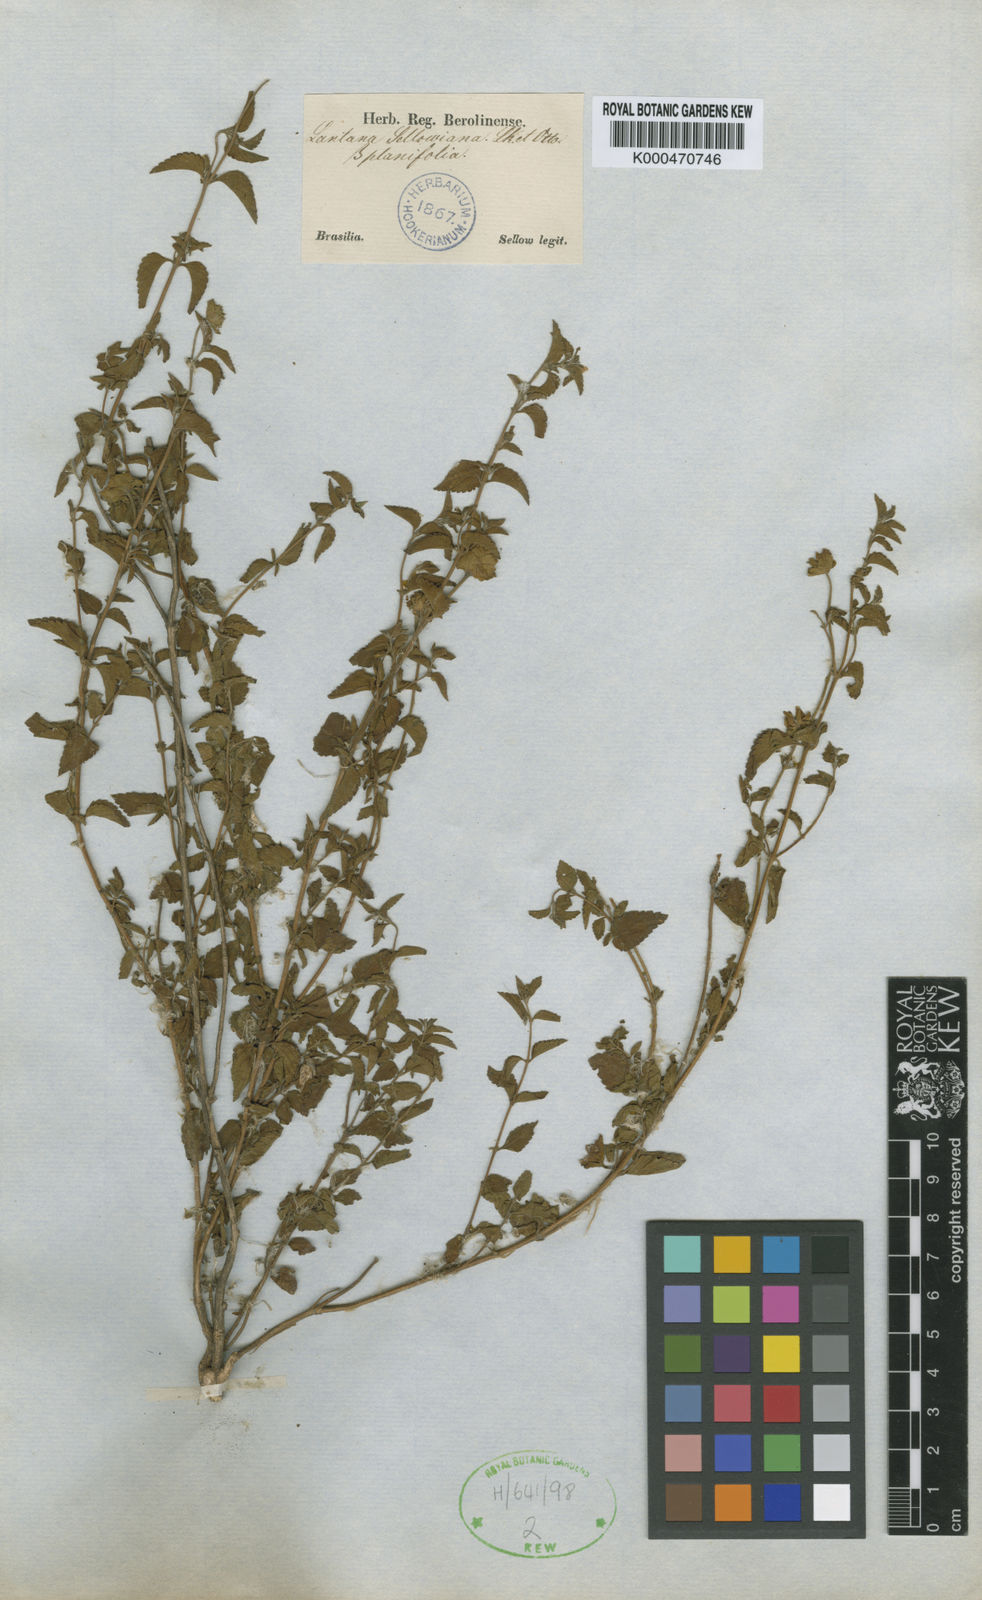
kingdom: Plantae
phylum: Tracheophyta
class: Magnoliopsida
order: Lamiales
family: Verbenaceae
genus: Lantana
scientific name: Lantana montevidensis
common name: Trailing shrubverbena
